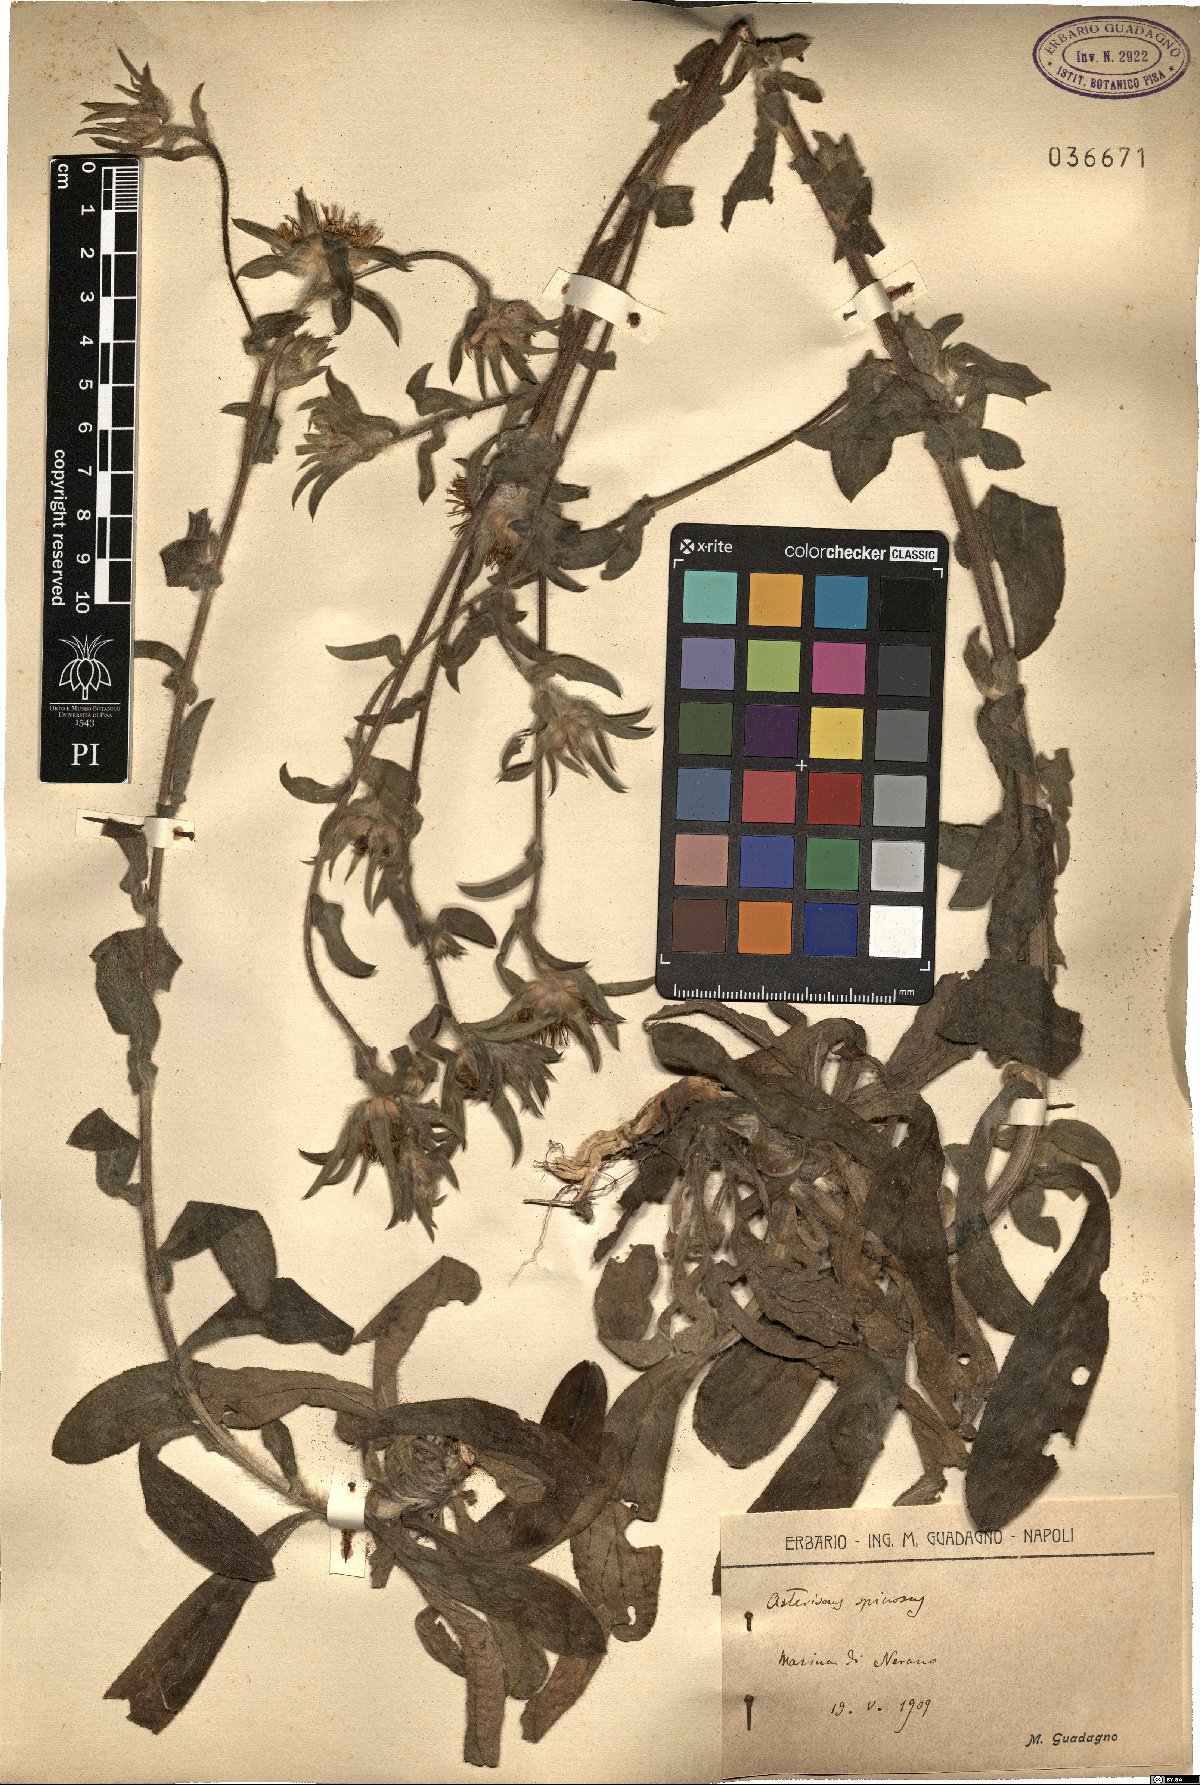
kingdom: Plantae
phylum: Tracheophyta
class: Magnoliopsida
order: Asterales
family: Asteraceae
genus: Pallenis
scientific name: Pallenis spinosa
